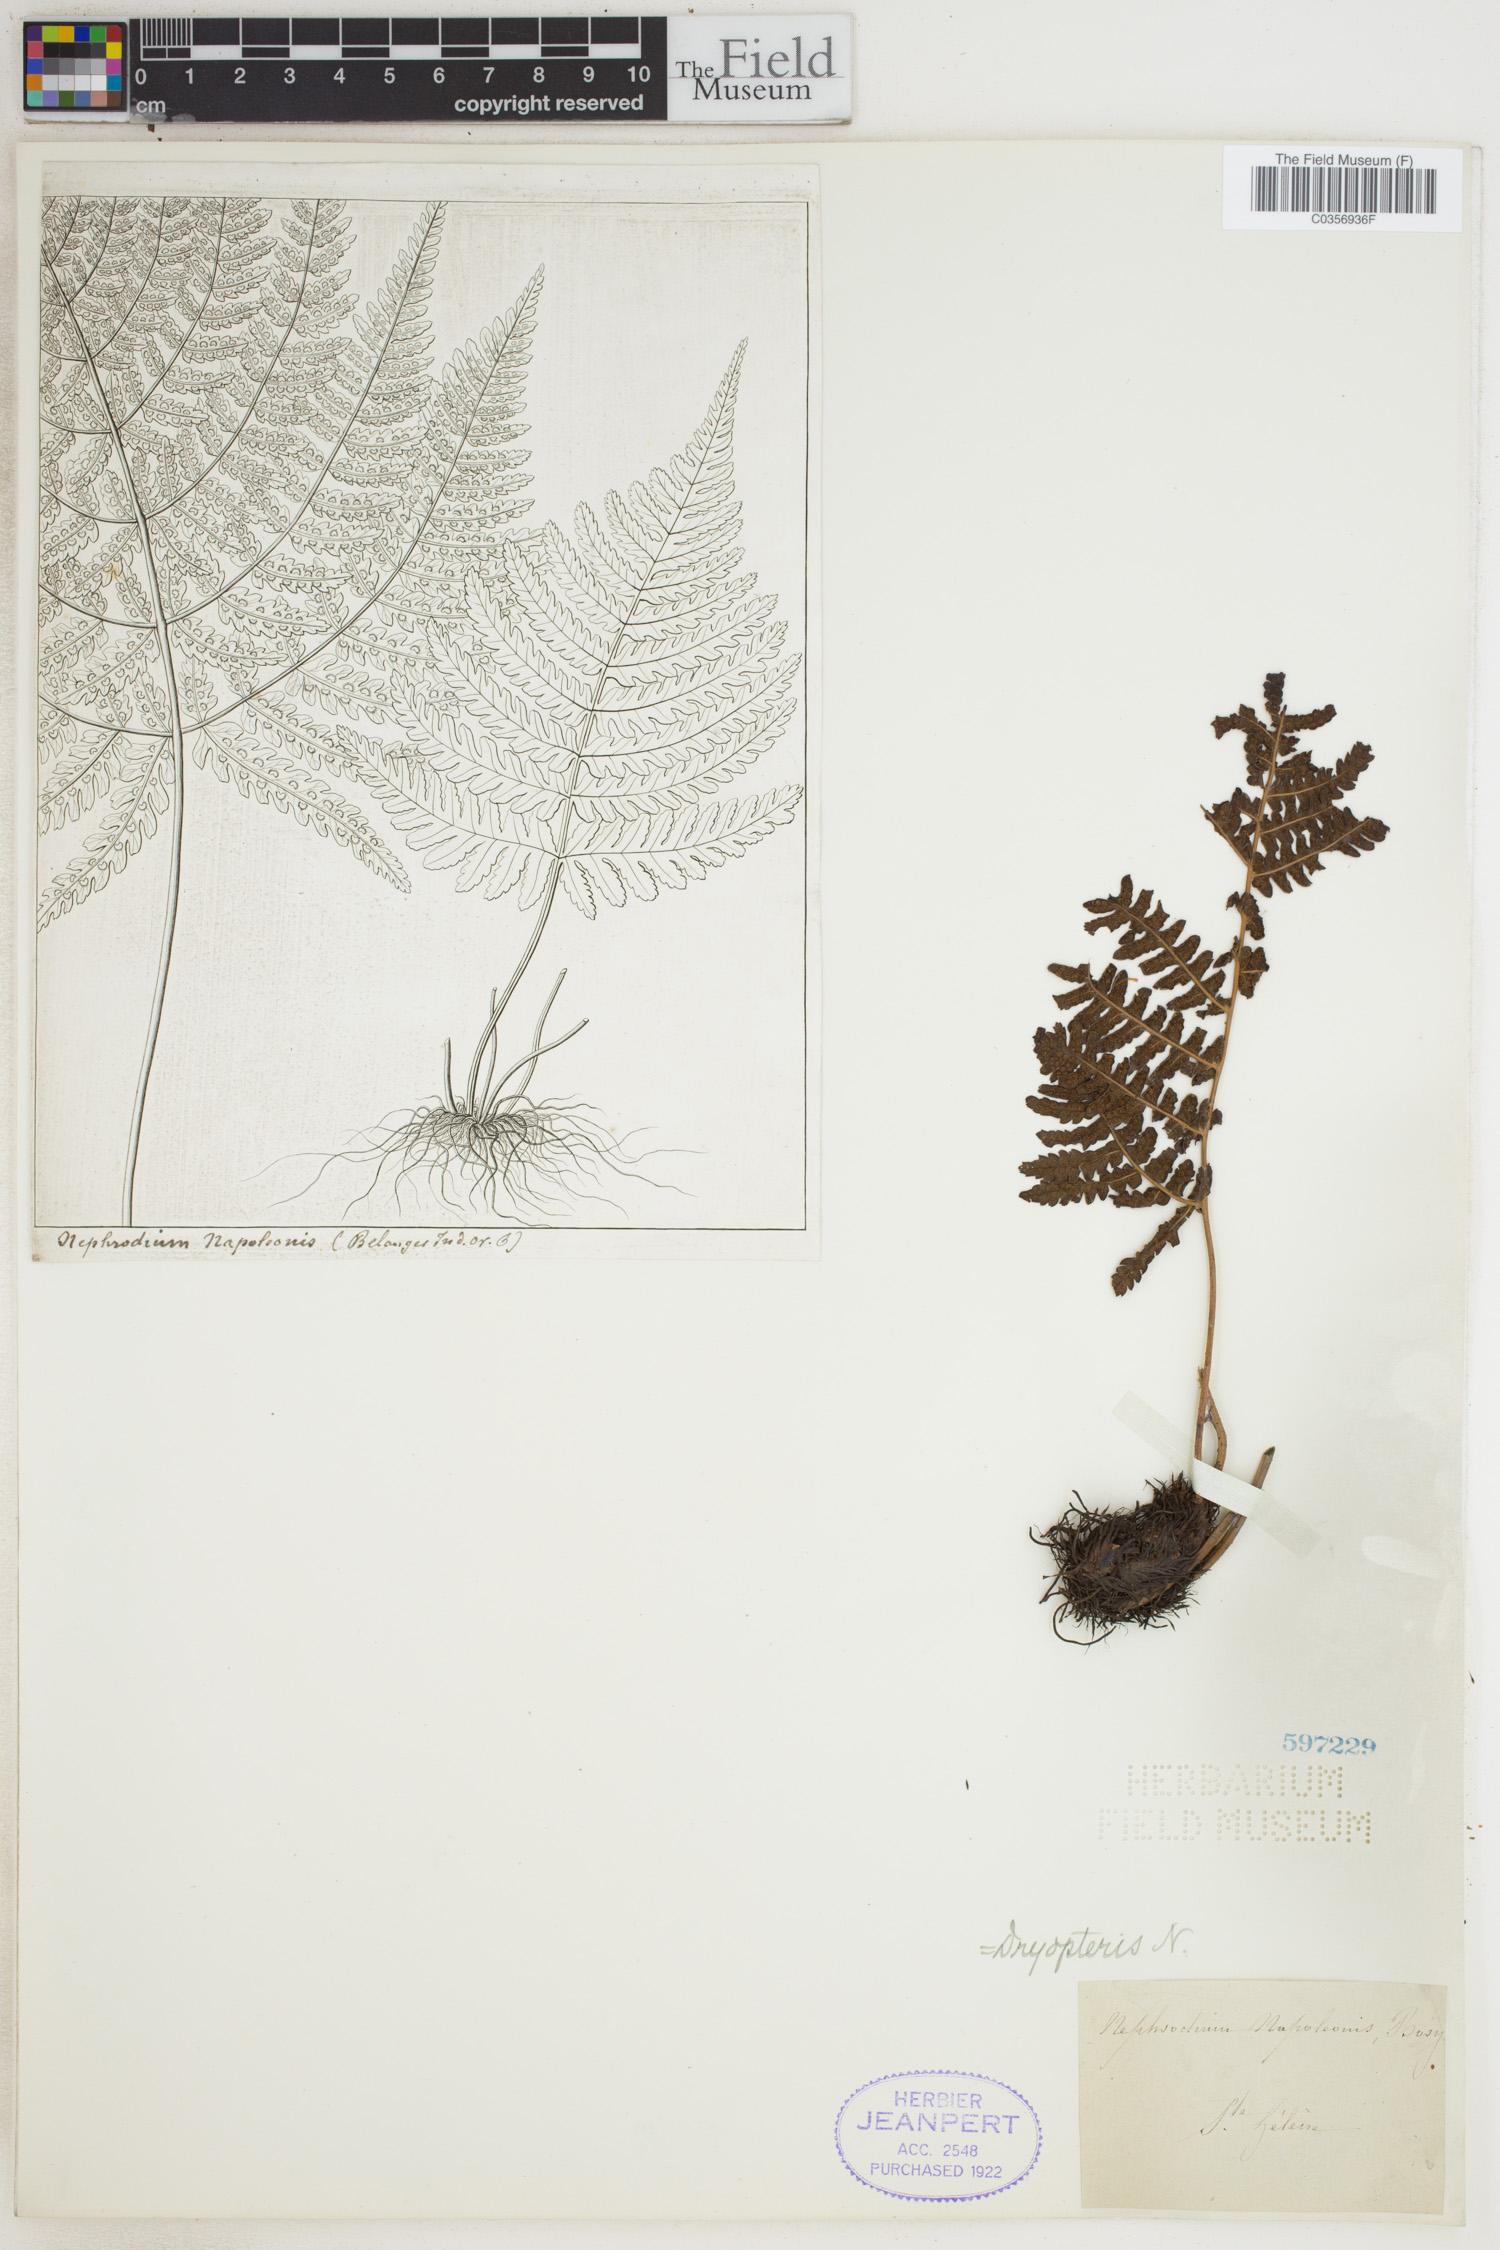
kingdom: Plantae
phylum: Tracheophyta
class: Polypodiopsida
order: Polypodiales
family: Dryopteridaceae
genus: Dryopteris
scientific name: Dryopteris napoleonis
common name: Small kidney fern
